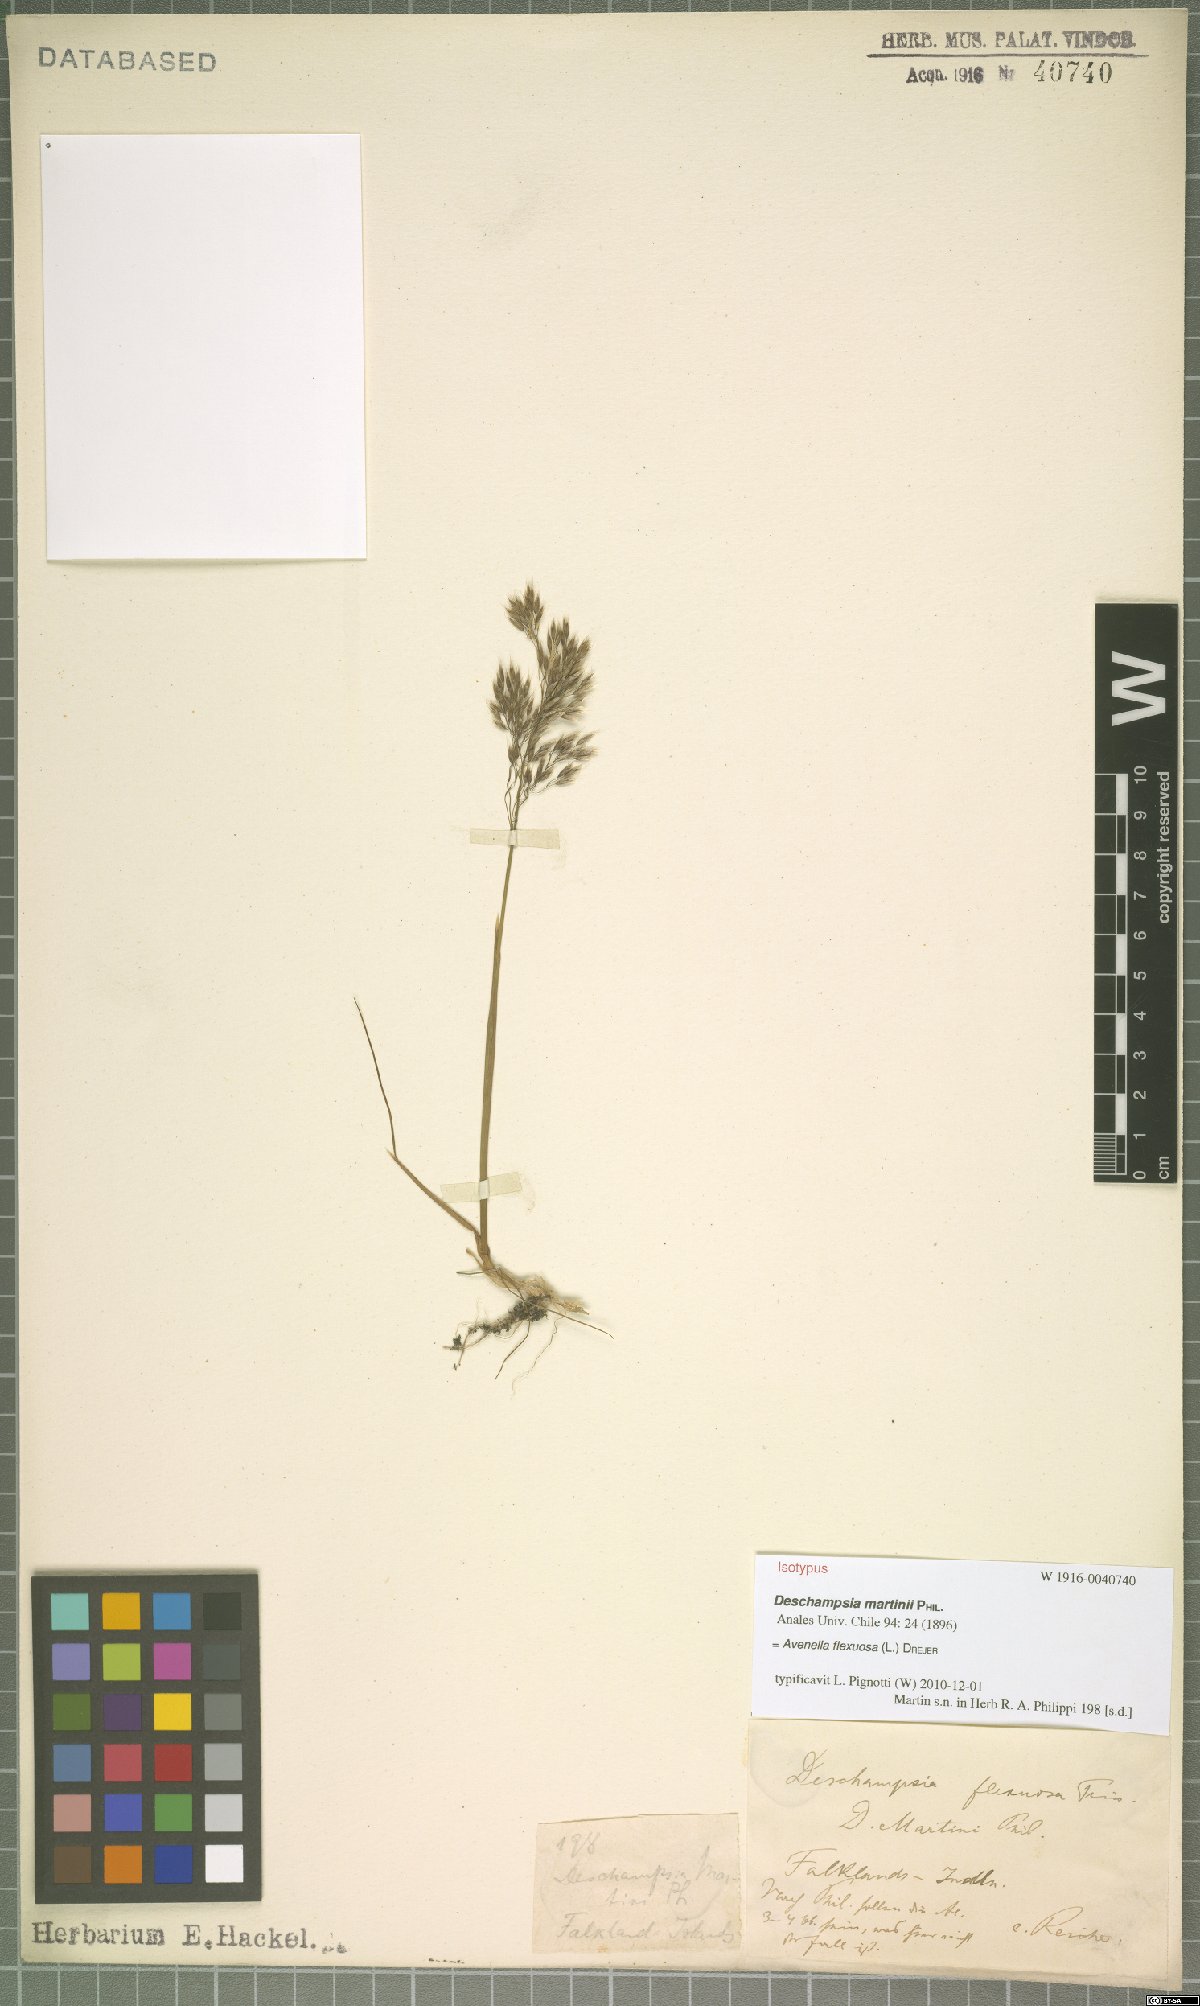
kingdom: Plantae
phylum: Tracheophyta
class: Liliopsida
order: Poales
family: Poaceae
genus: Avenella
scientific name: Avenella flexuosa
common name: Wavy hairgrass
